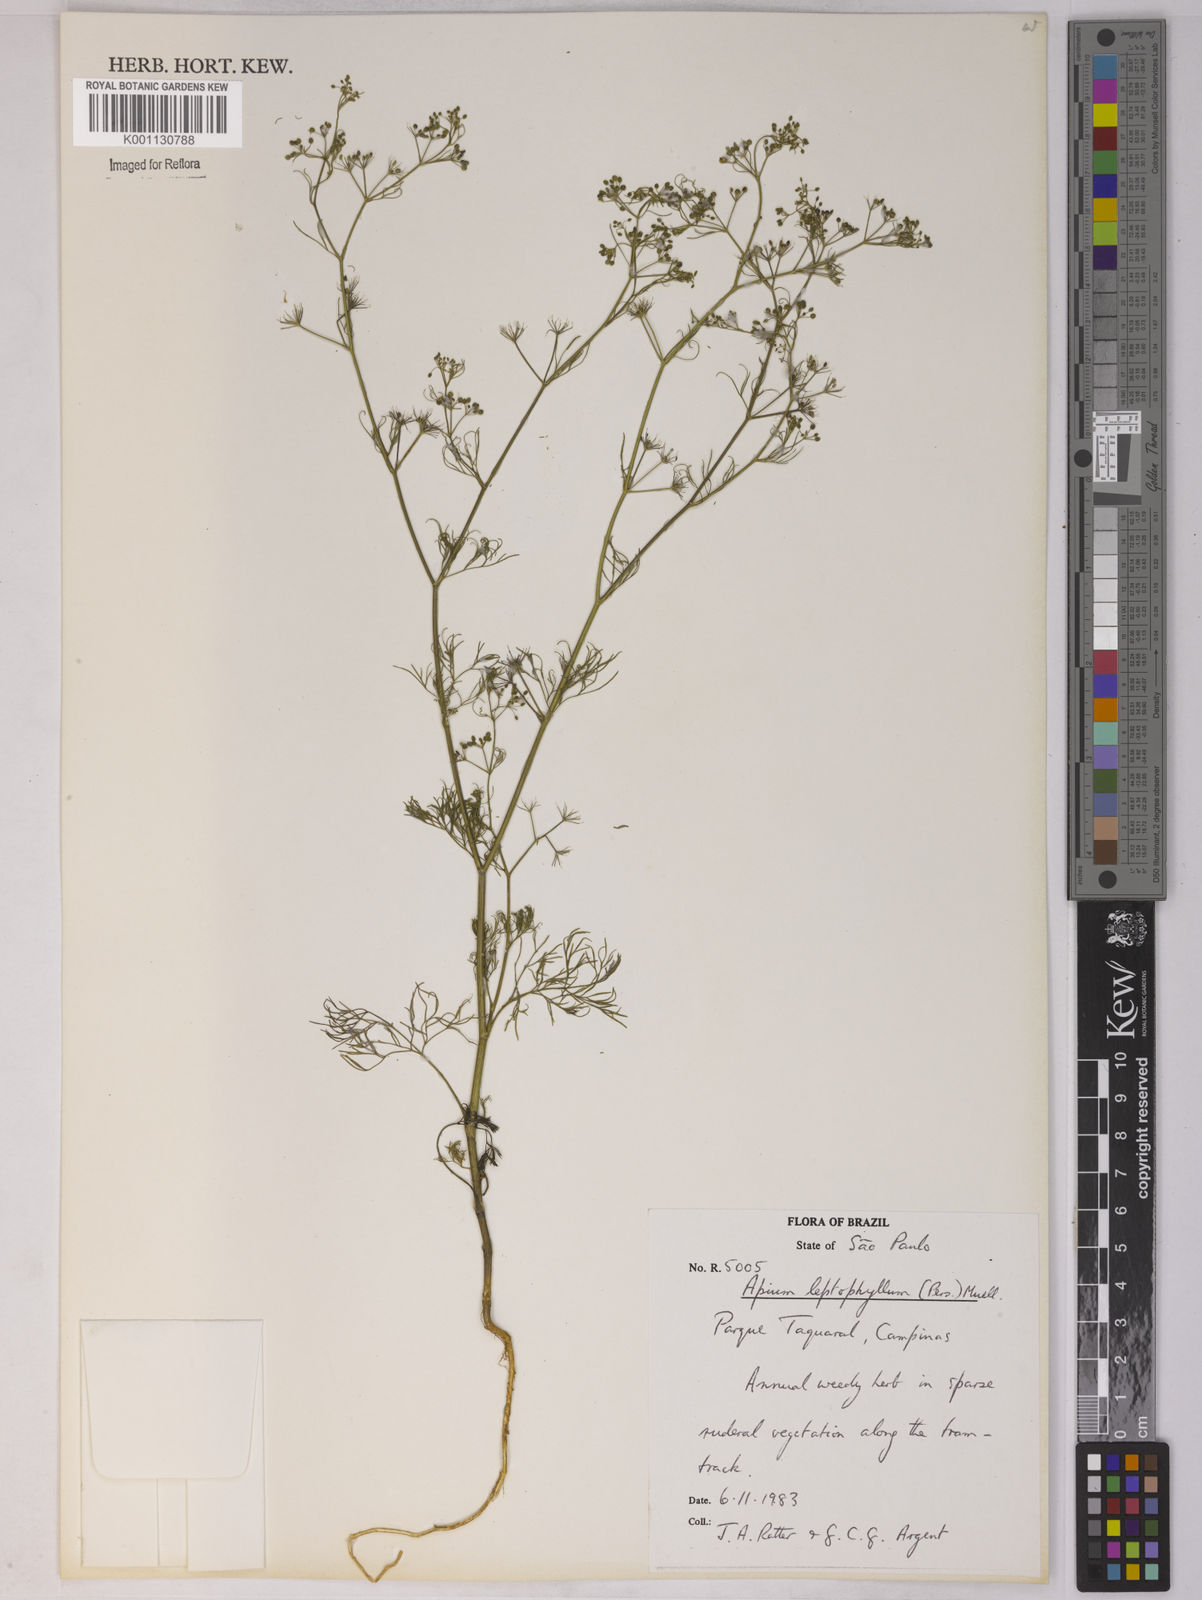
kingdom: Plantae
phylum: Tracheophyta
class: Magnoliopsida
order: Apiales
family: Apiaceae
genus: Apium
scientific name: Apium
